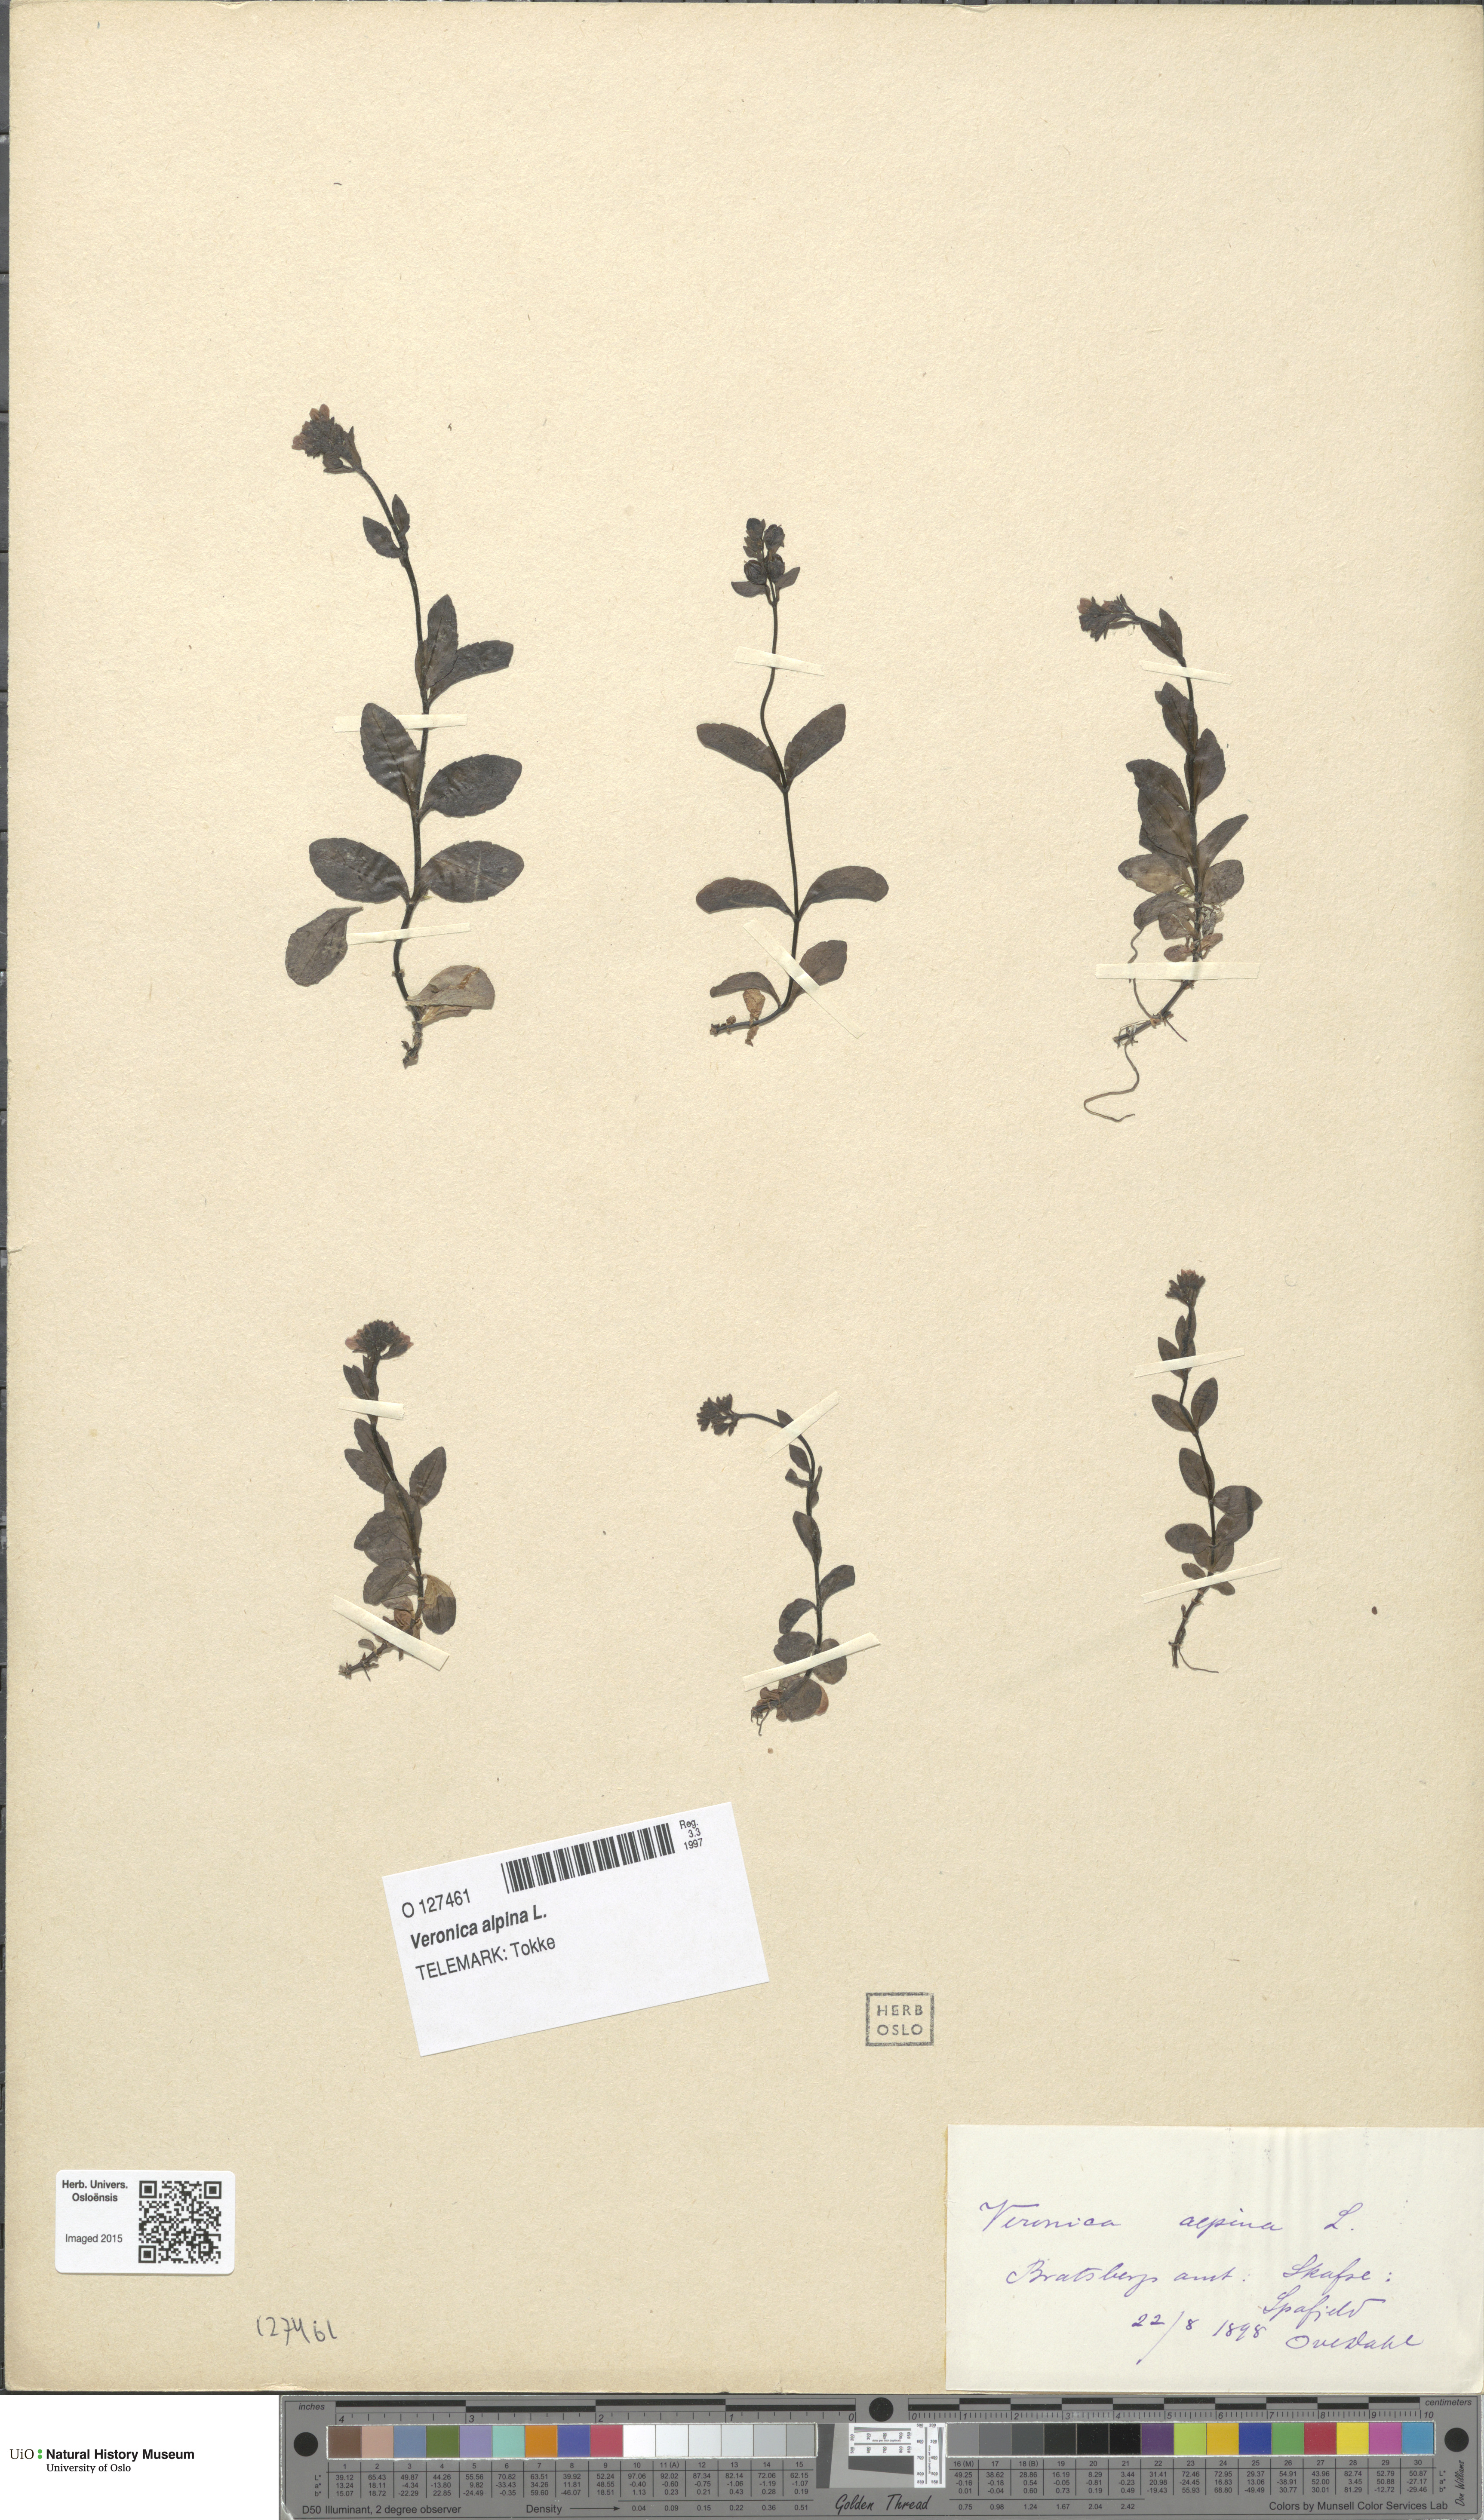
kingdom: Plantae
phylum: Tracheophyta
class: Magnoliopsida
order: Lamiales
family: Plantaginaceae
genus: Veronica
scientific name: Veronica alpina
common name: Alpine speedwell
